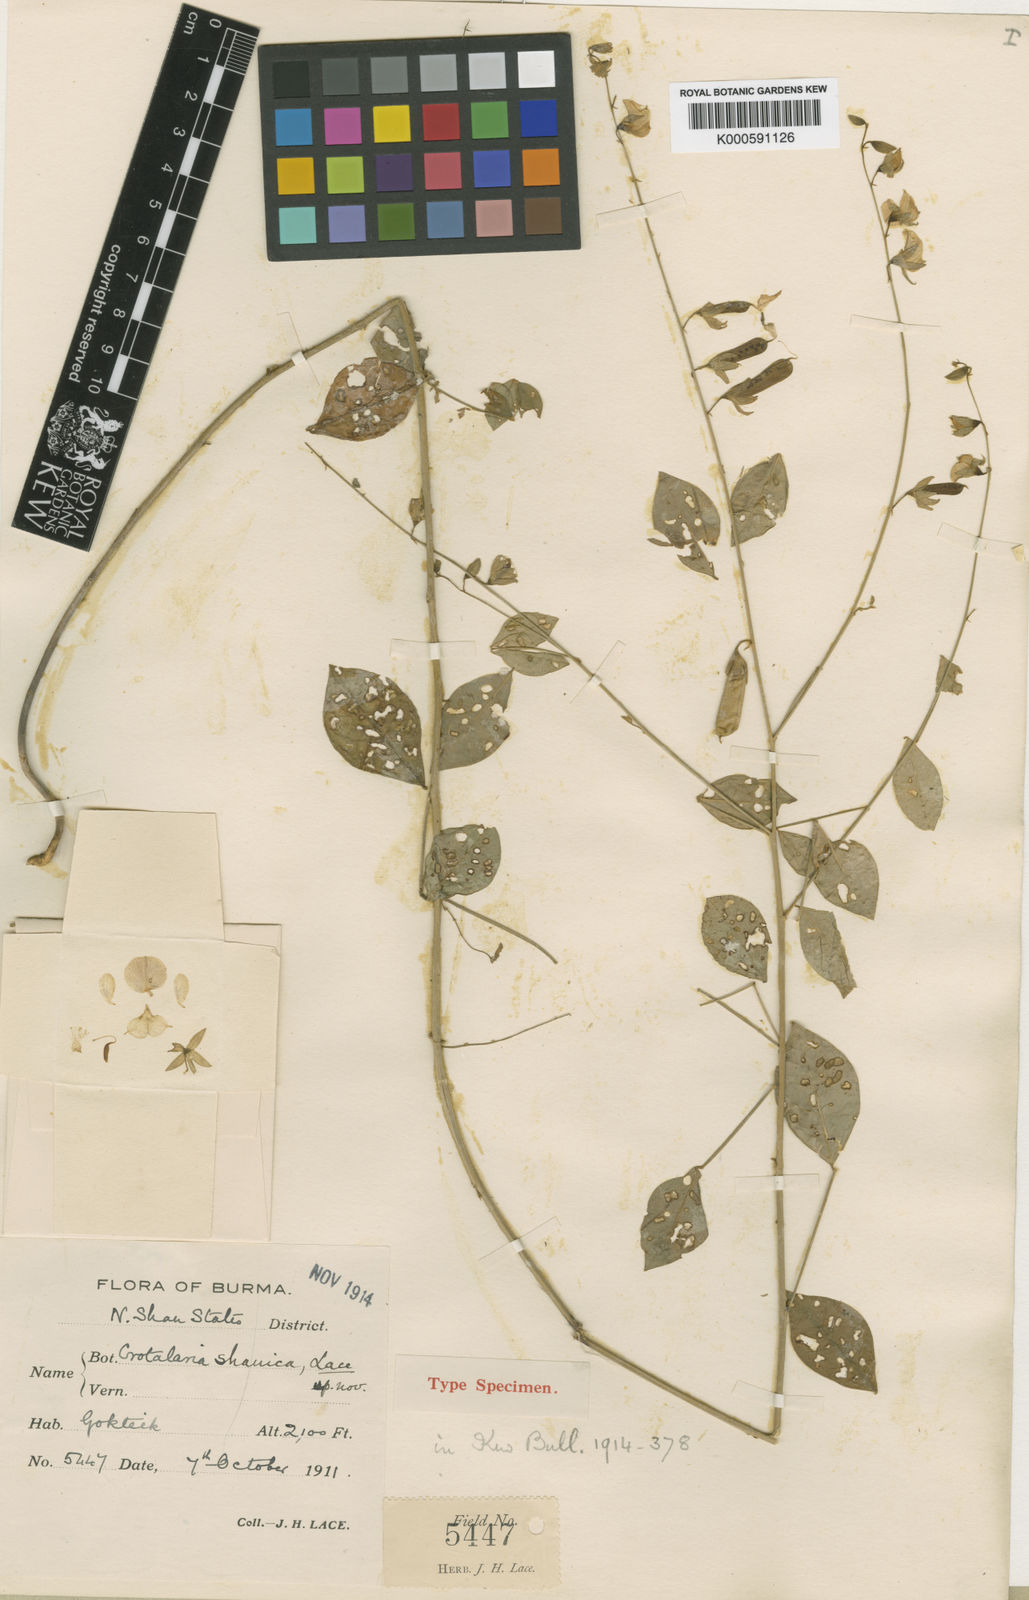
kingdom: Plantae
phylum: Tracheophyta
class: Magnoliopsida
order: Fabales
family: Fabaceae
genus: Crotalaria
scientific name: Crotalaria shanica
